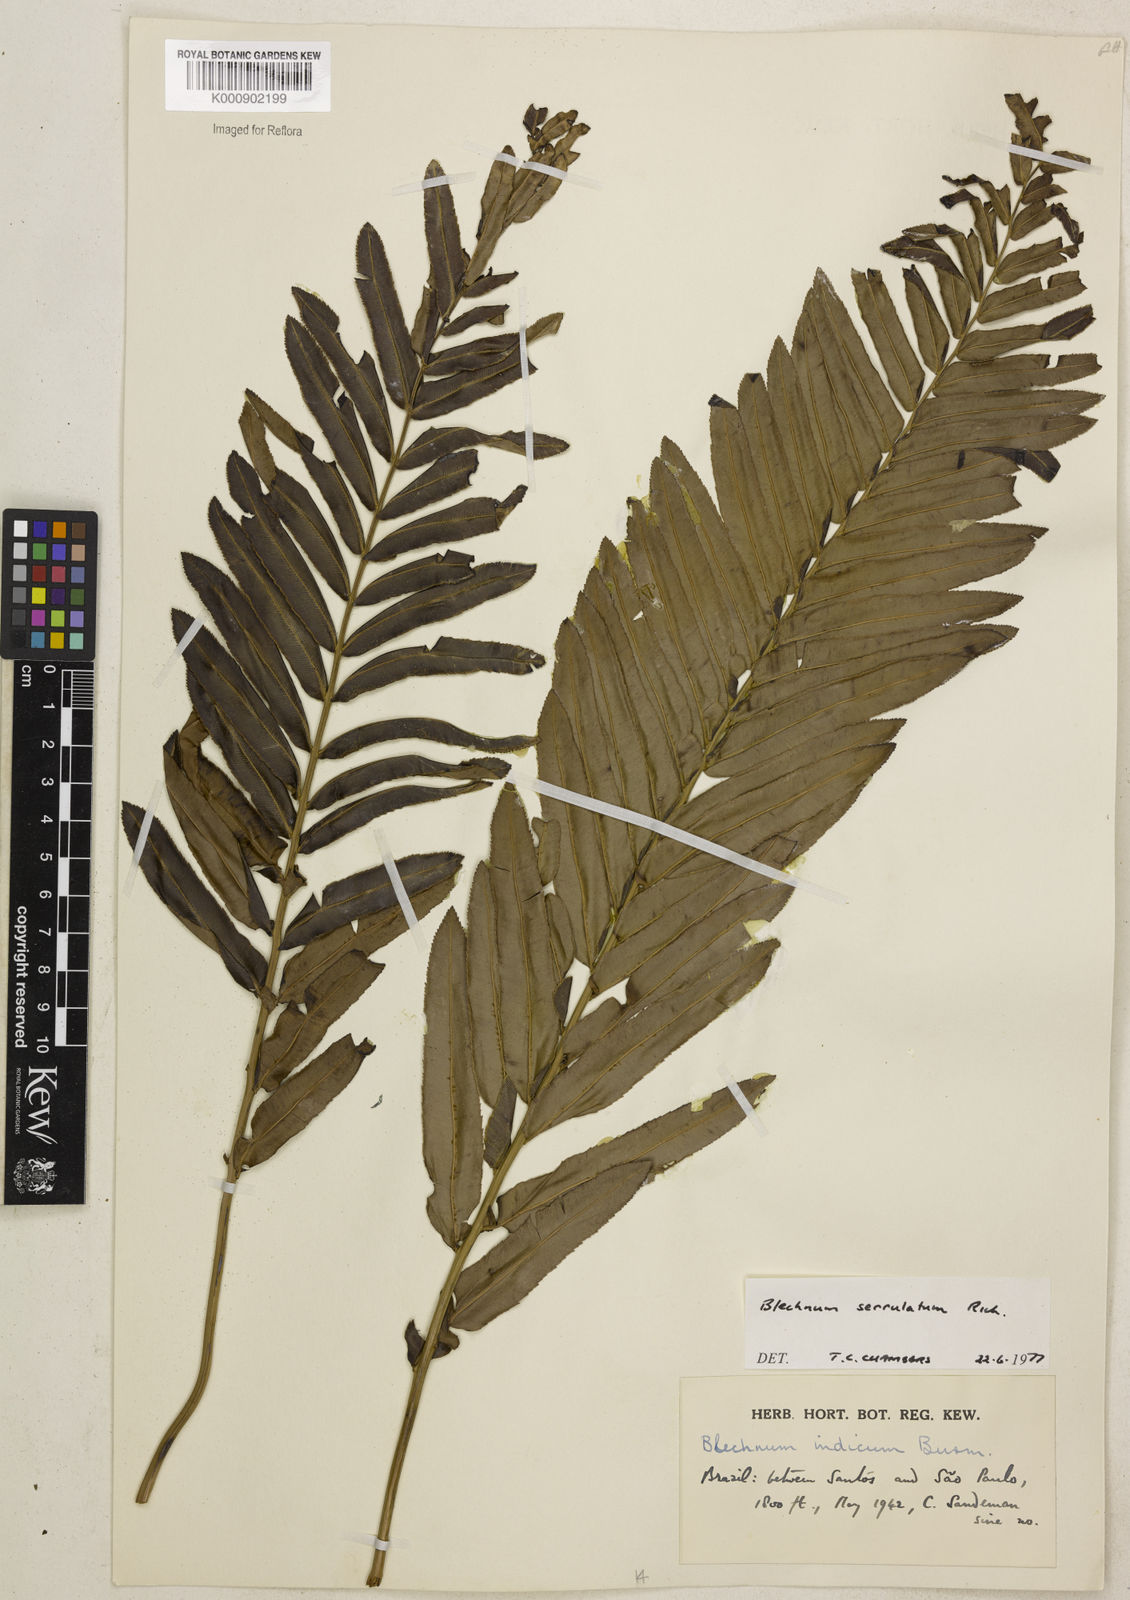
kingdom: Plantae
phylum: Tracheophyta
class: Polypodiopsida
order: Polypodiales
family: Blechnaceae
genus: Telmatoblechnum
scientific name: Telmatoblechnum serrulatum
